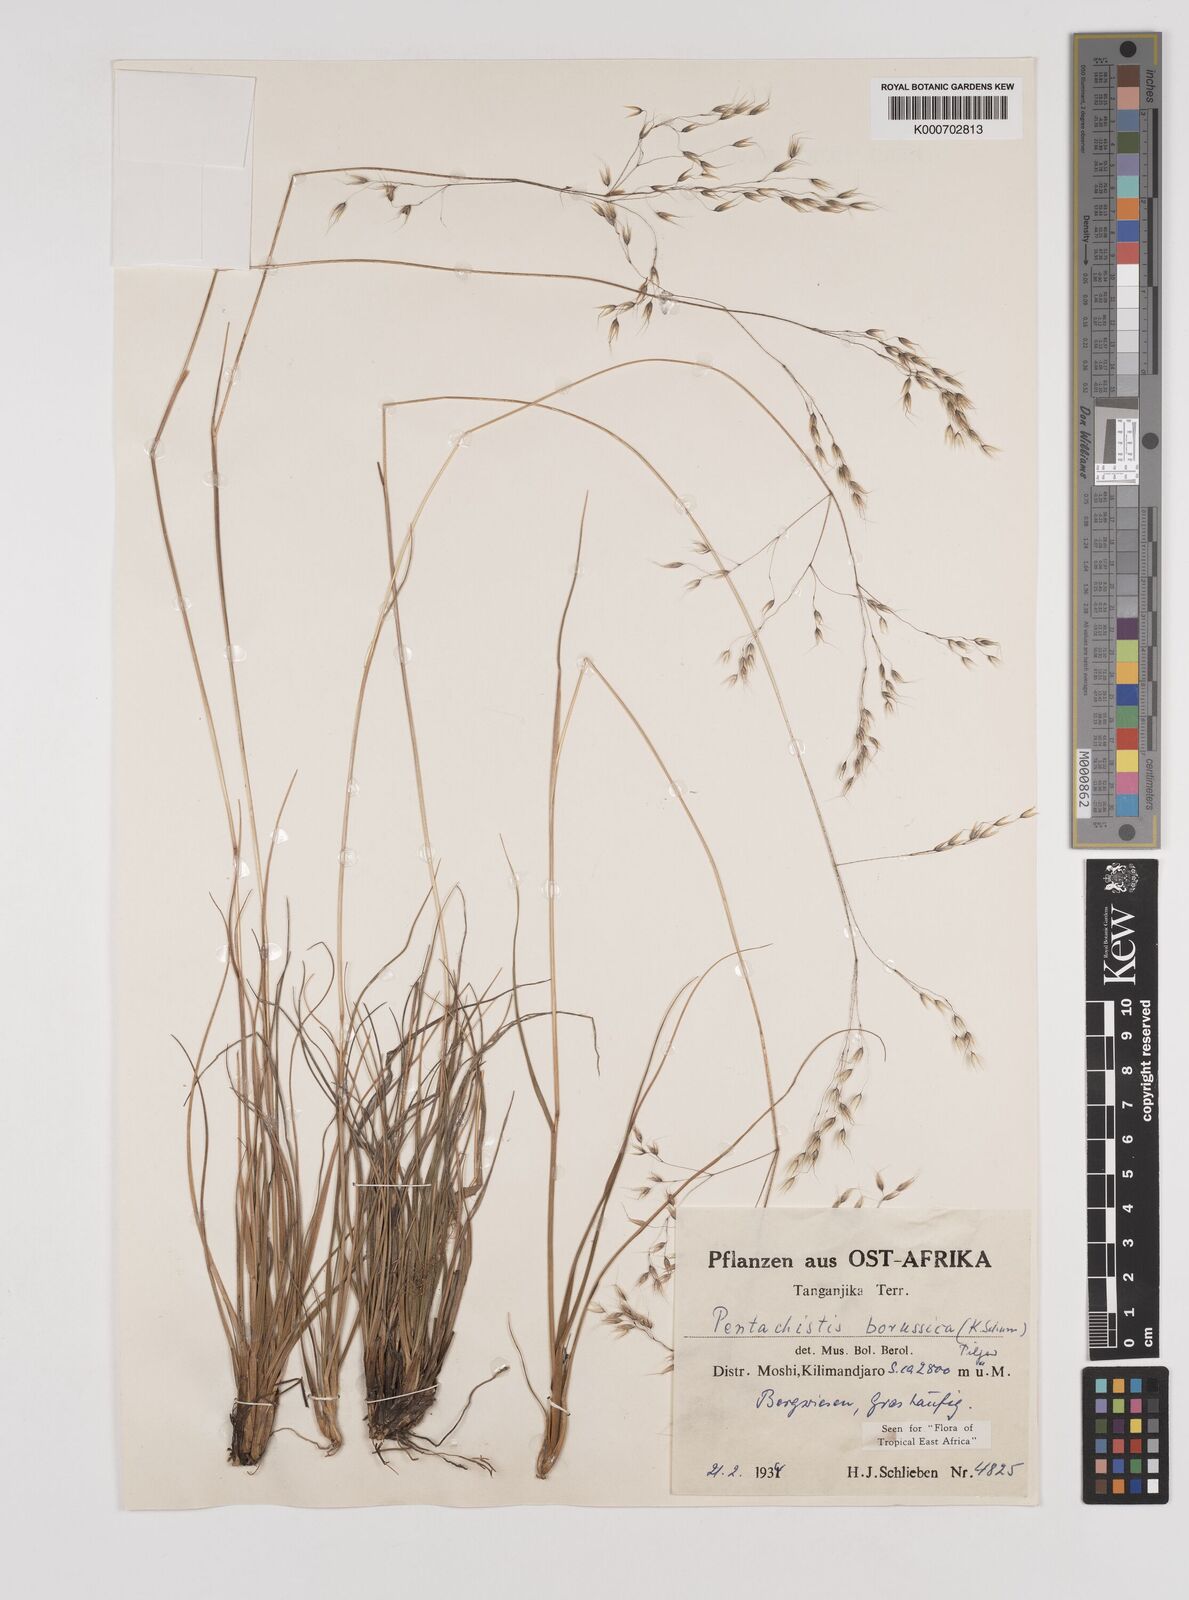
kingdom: Plantae
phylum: Tracheophyta
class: Liliopsida
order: Poales
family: Poaceae
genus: Pentameris
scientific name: Pentameris borussica
